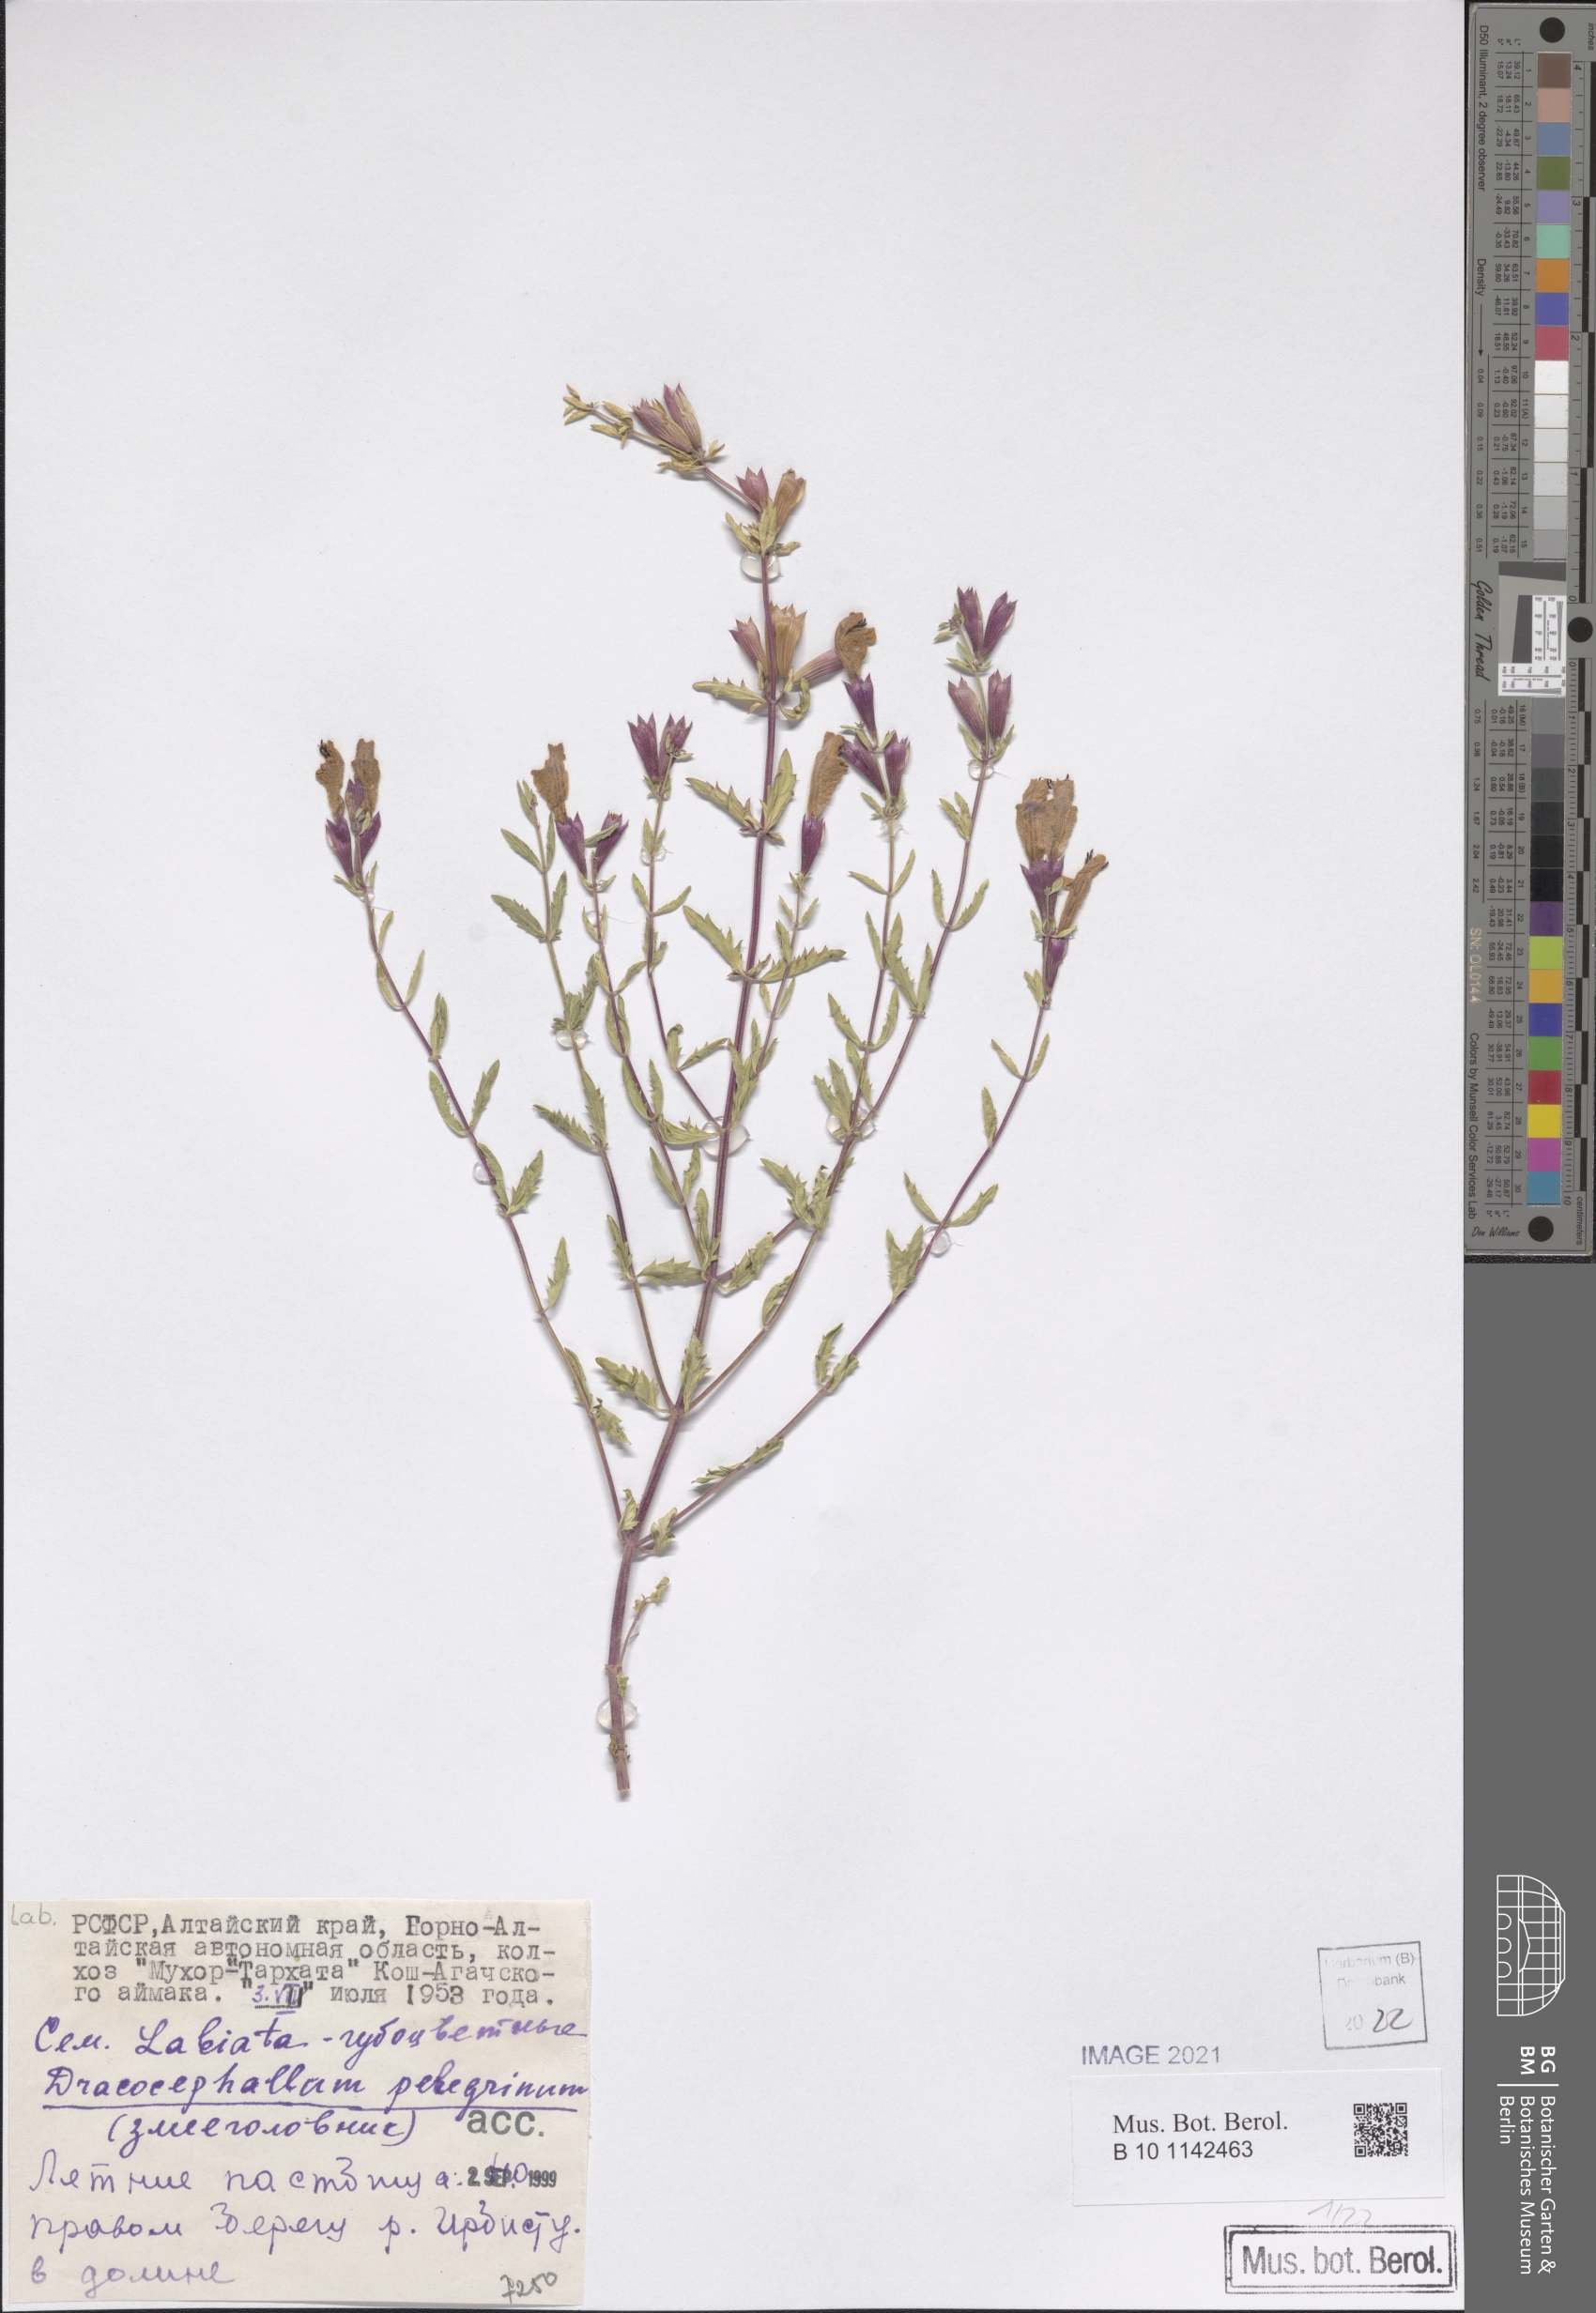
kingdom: Plantae
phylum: Tracheophyta
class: Magnoliopsida
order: Lamiales
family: Lamiaceae
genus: Dracocephalum
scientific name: Dracocephalum peregrinum
